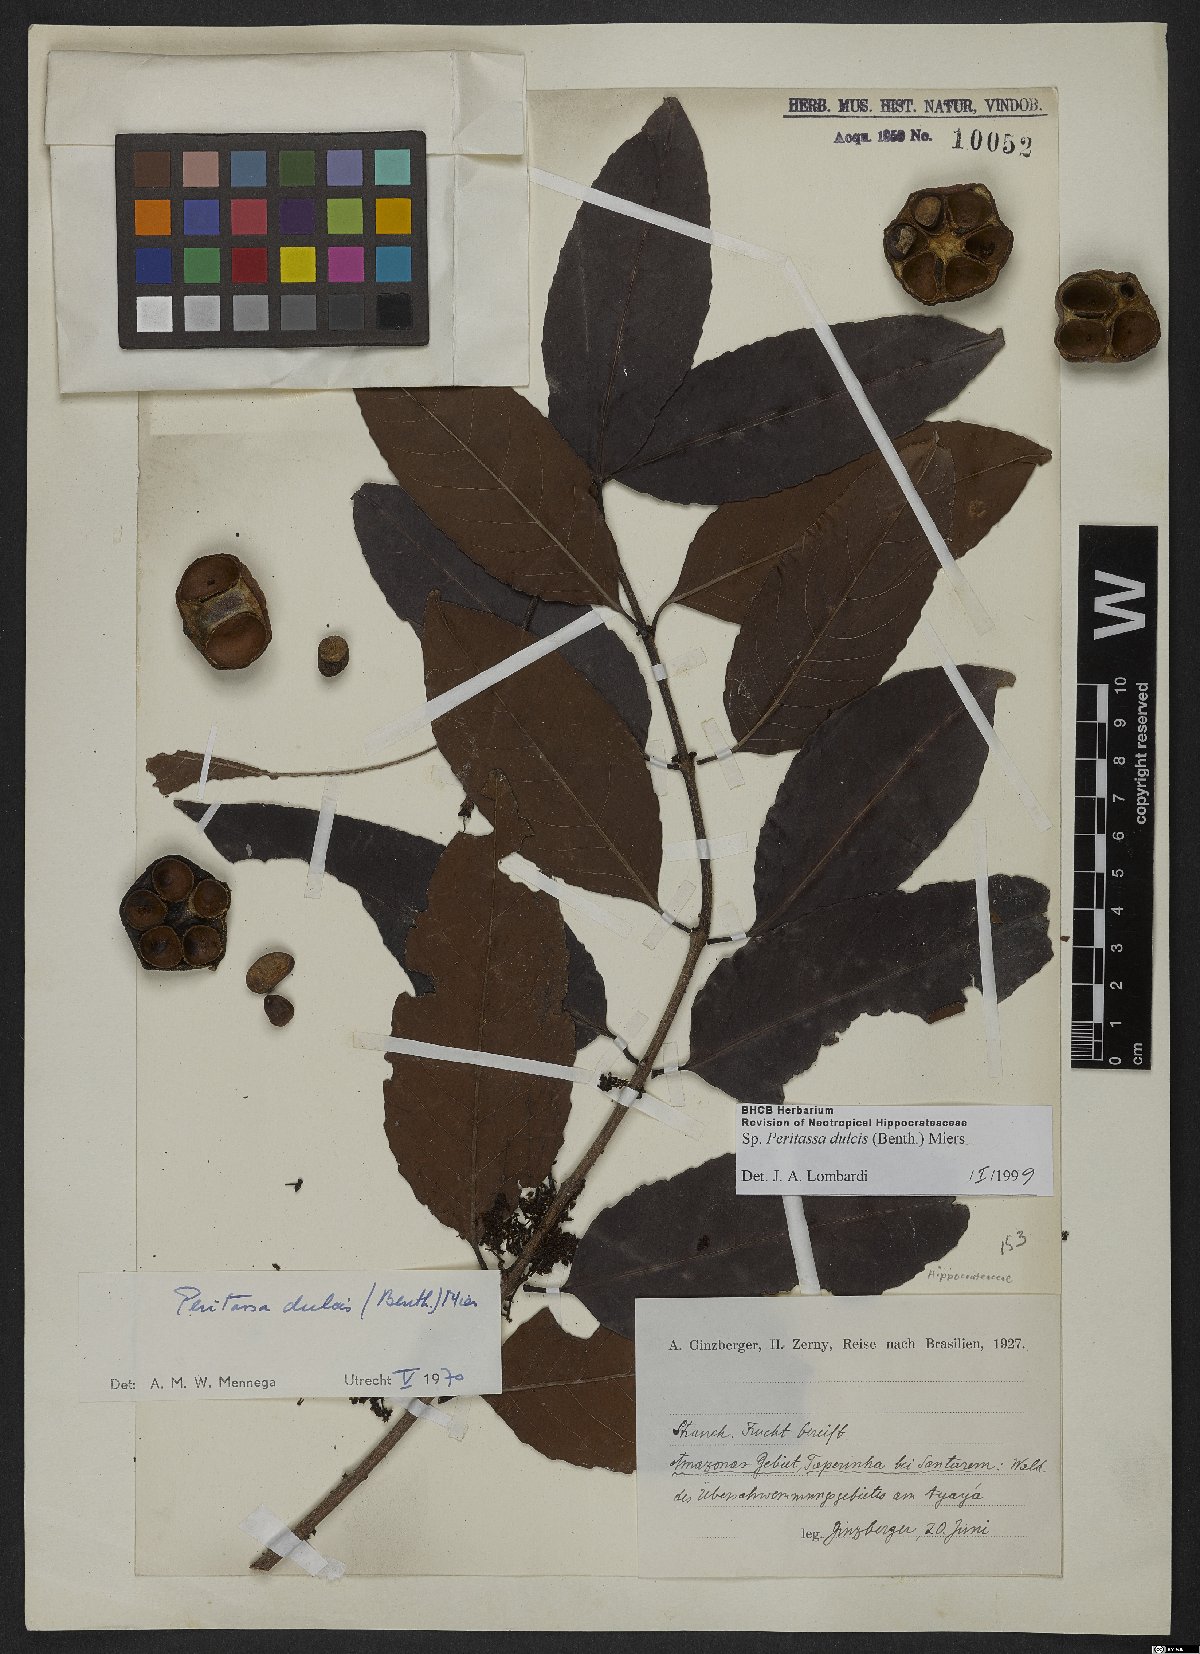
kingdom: Plantae
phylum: Tracheophyta
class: Magnoliopsida
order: Celastrales
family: Celastraceae
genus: Peritassa
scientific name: Peritassa dulcis
